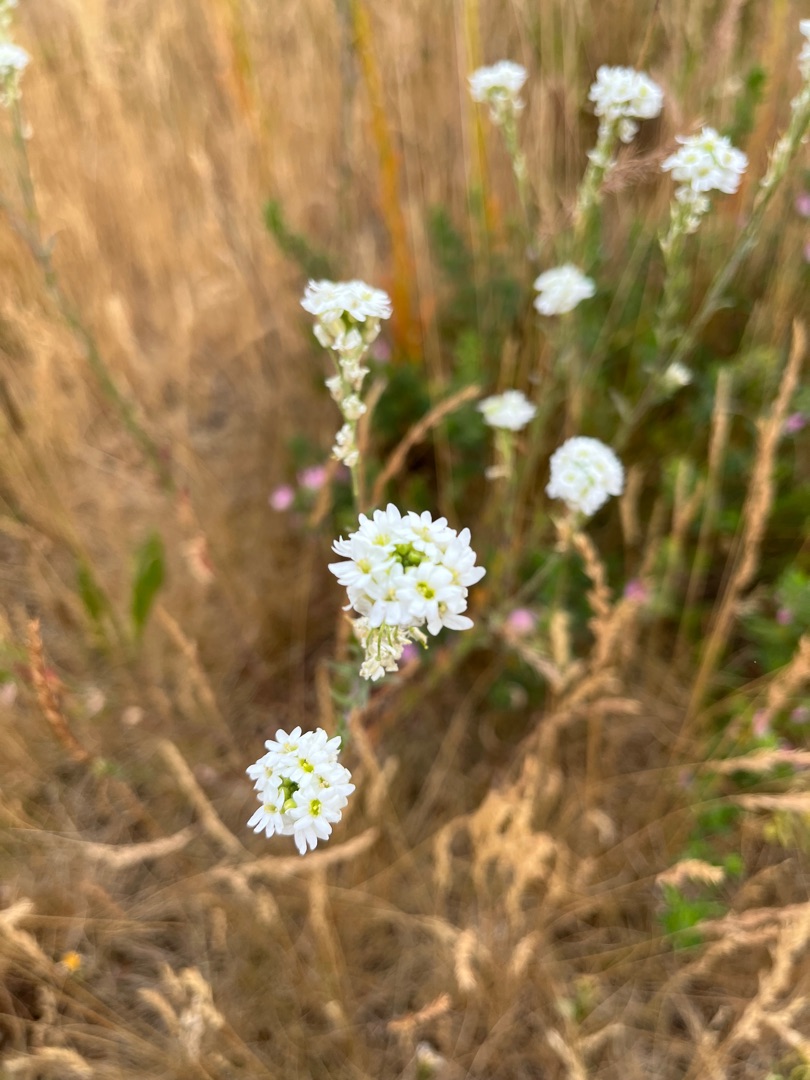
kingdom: Plantae
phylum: Tracheophyta
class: Magnoliopsida
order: Brassicales
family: Brassicaceae
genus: Berteroa
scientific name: Berteroa incana
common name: Kløvplade
